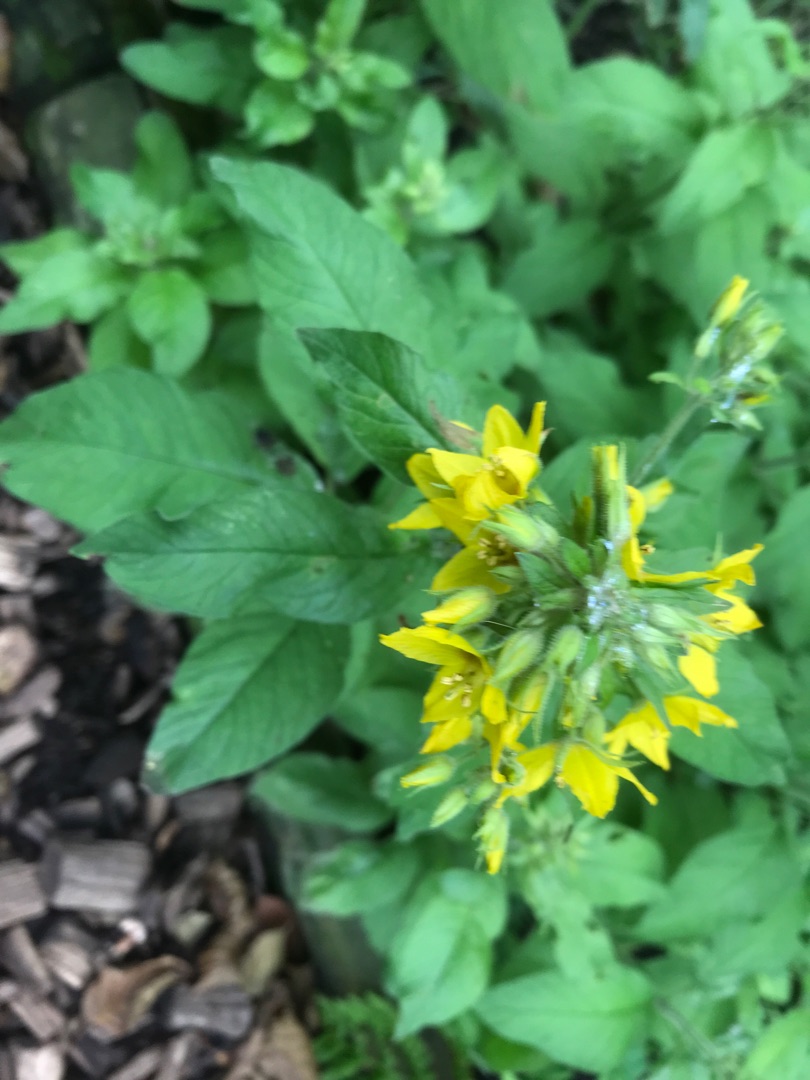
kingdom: Plantae
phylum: Tracheophyta
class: Magnoliopsida
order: Ericales
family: Primulaceae
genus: Lysimachia
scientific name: Lysimachia vulgaris
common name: Almindelig fredløs
